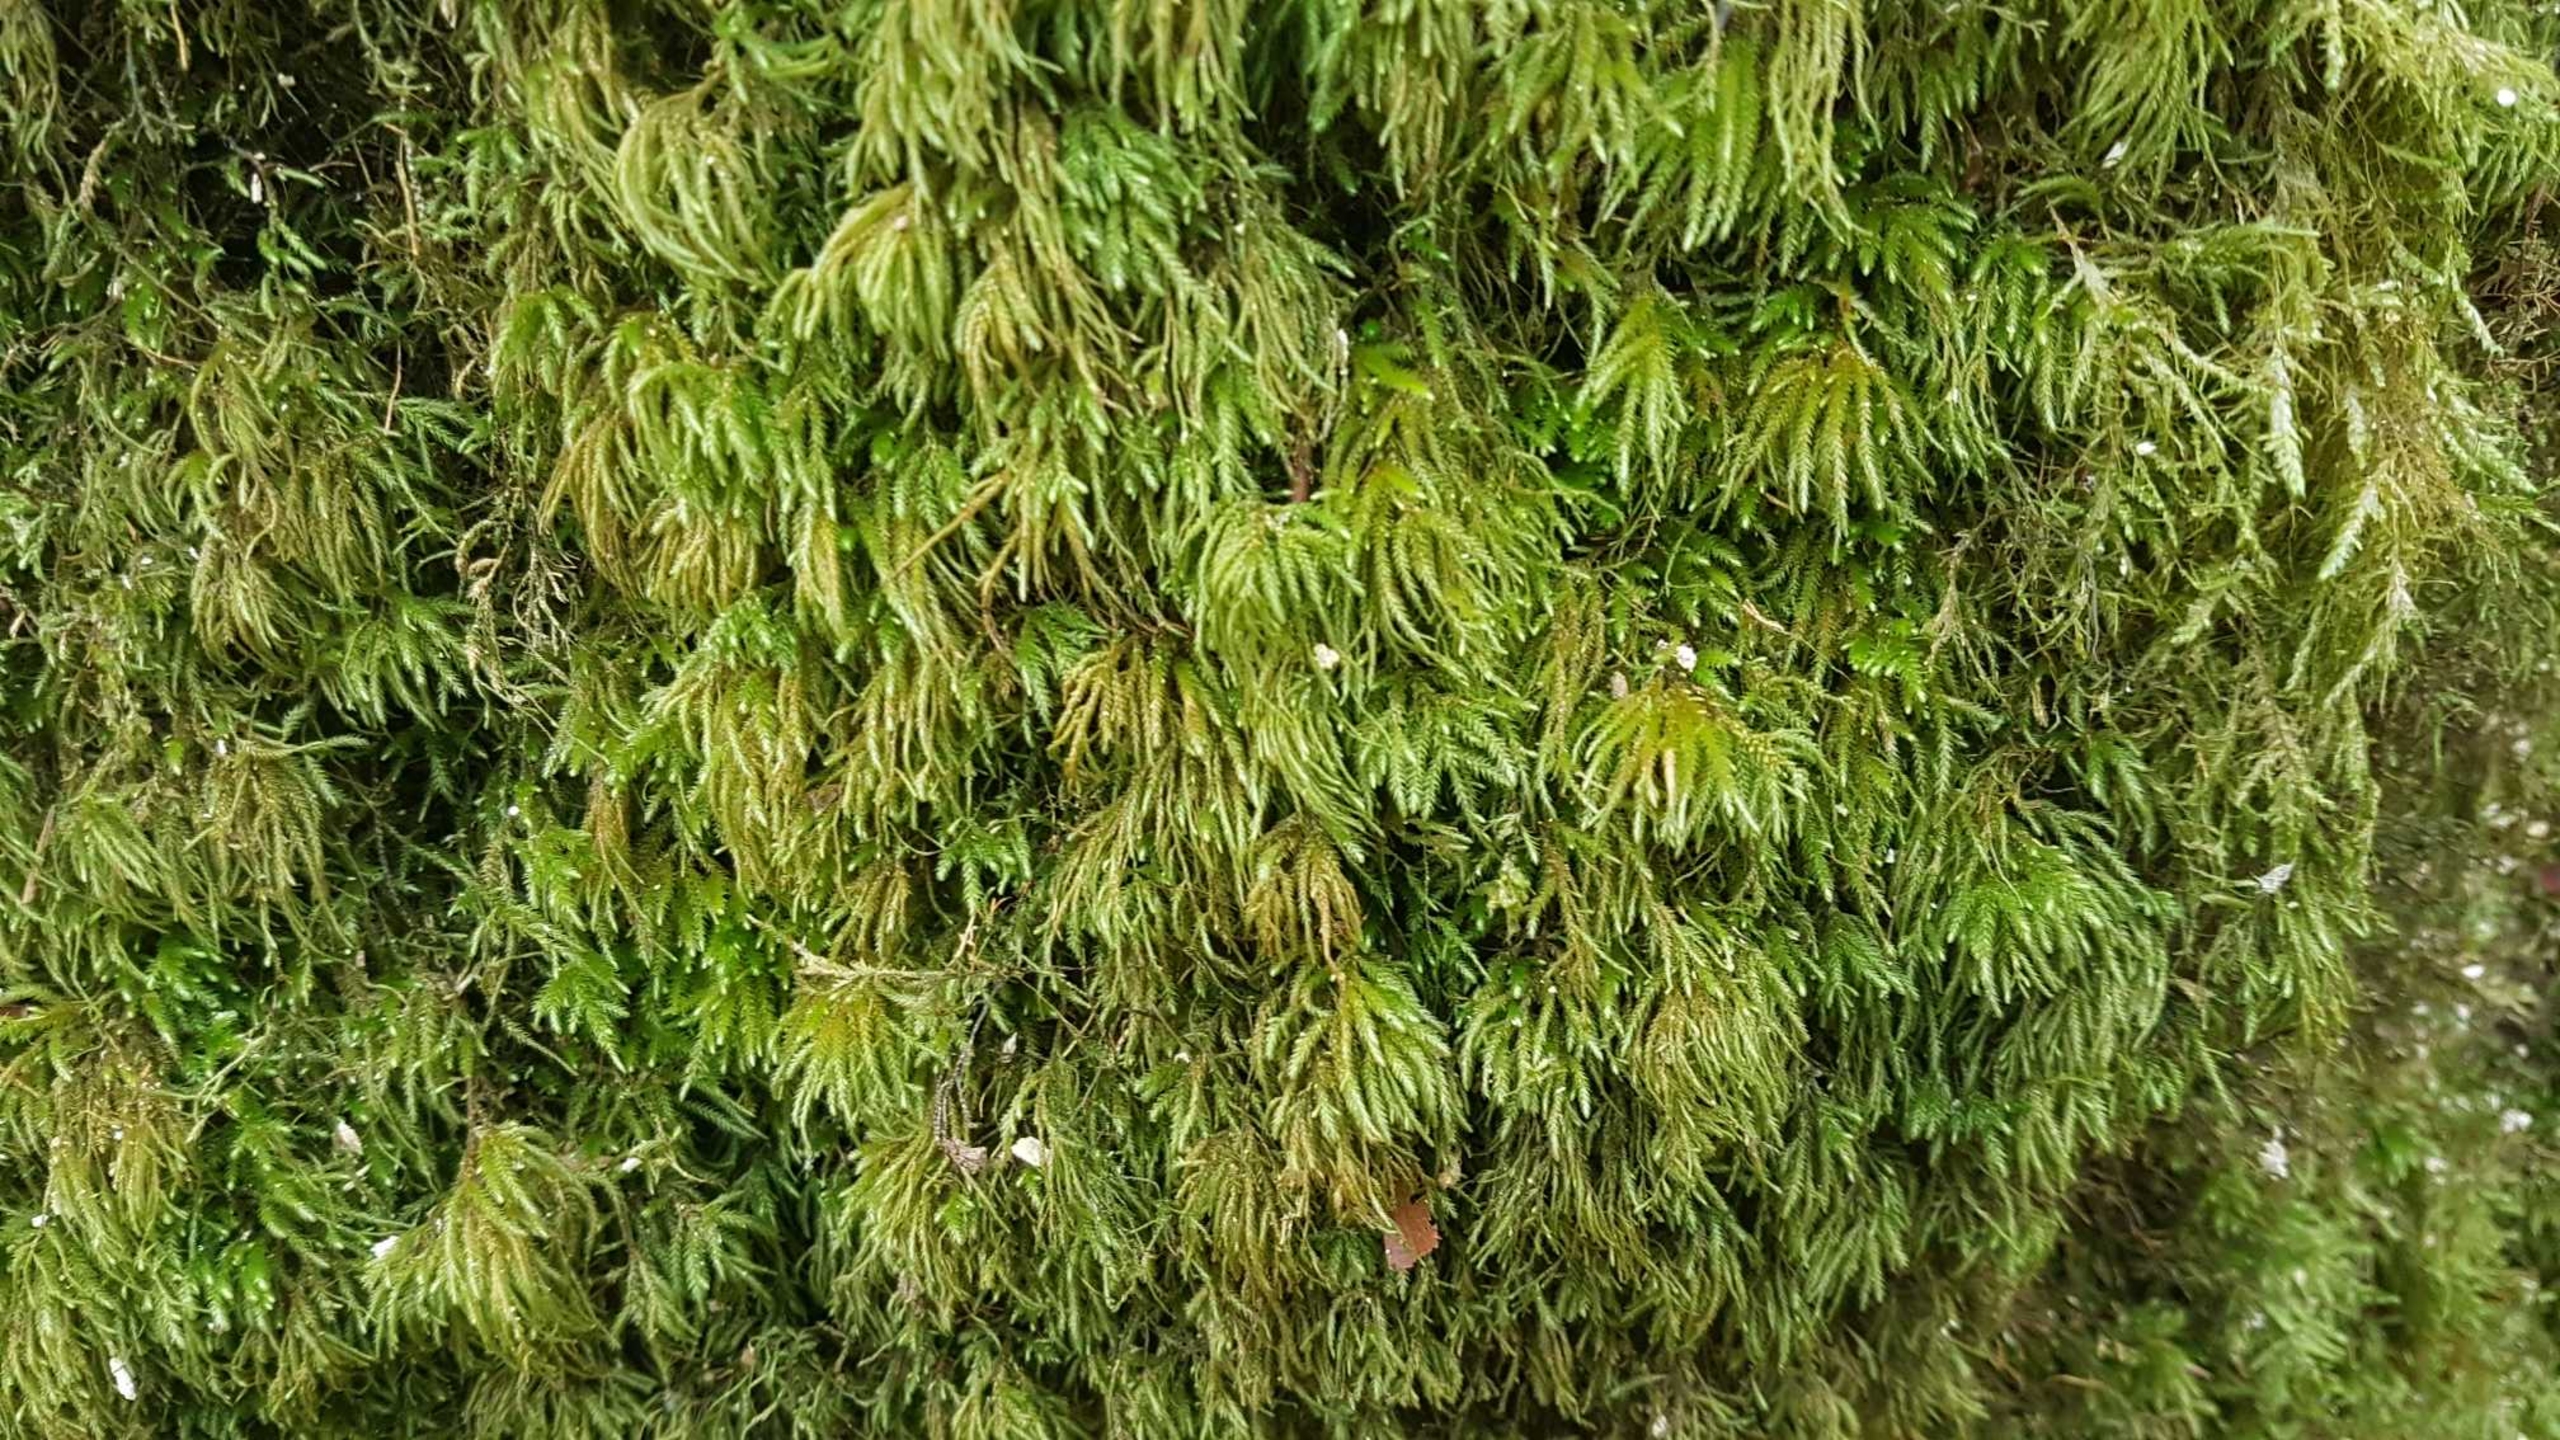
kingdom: Plantae
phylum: Bryophyta
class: Bryopsida
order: Hypnales
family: Lembophyllaceae
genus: Nogopterium
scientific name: Nogopterium gracile
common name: Tæt fugleklomos
